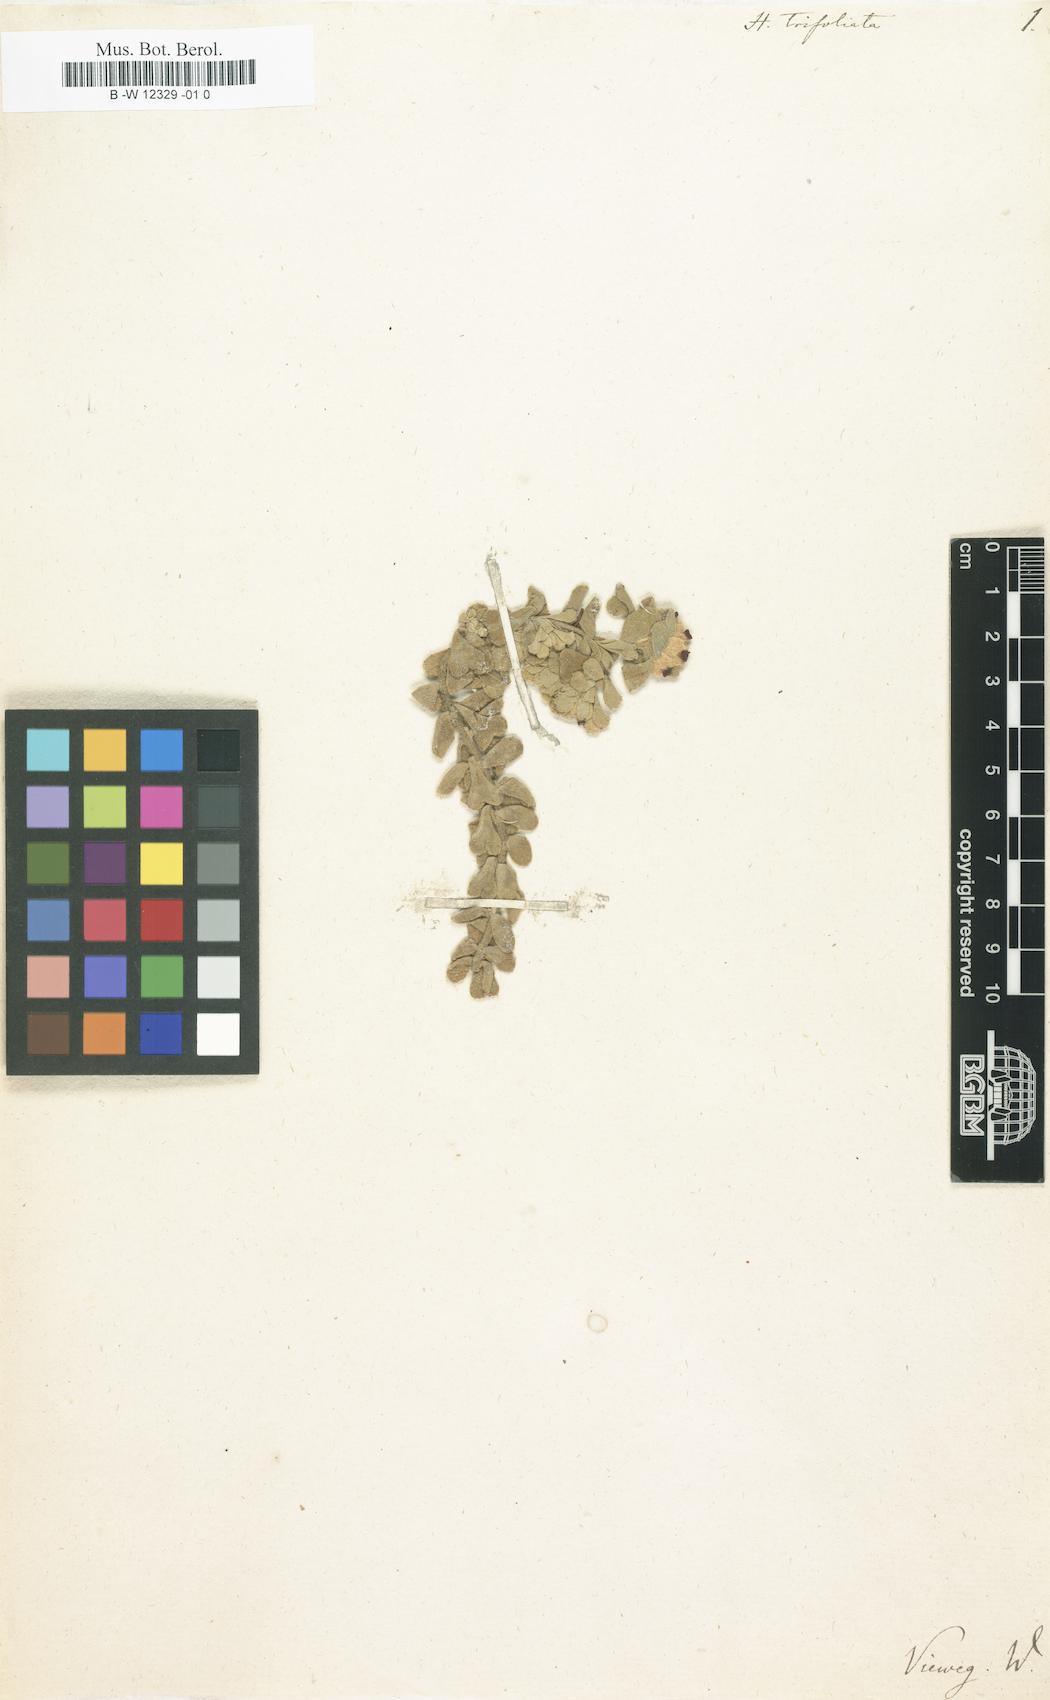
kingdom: Plantae
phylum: Tracheophyta
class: Magnoliopsida
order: Malvales
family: Malvaceae
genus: Hermannia
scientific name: Hermannia trifoliata
